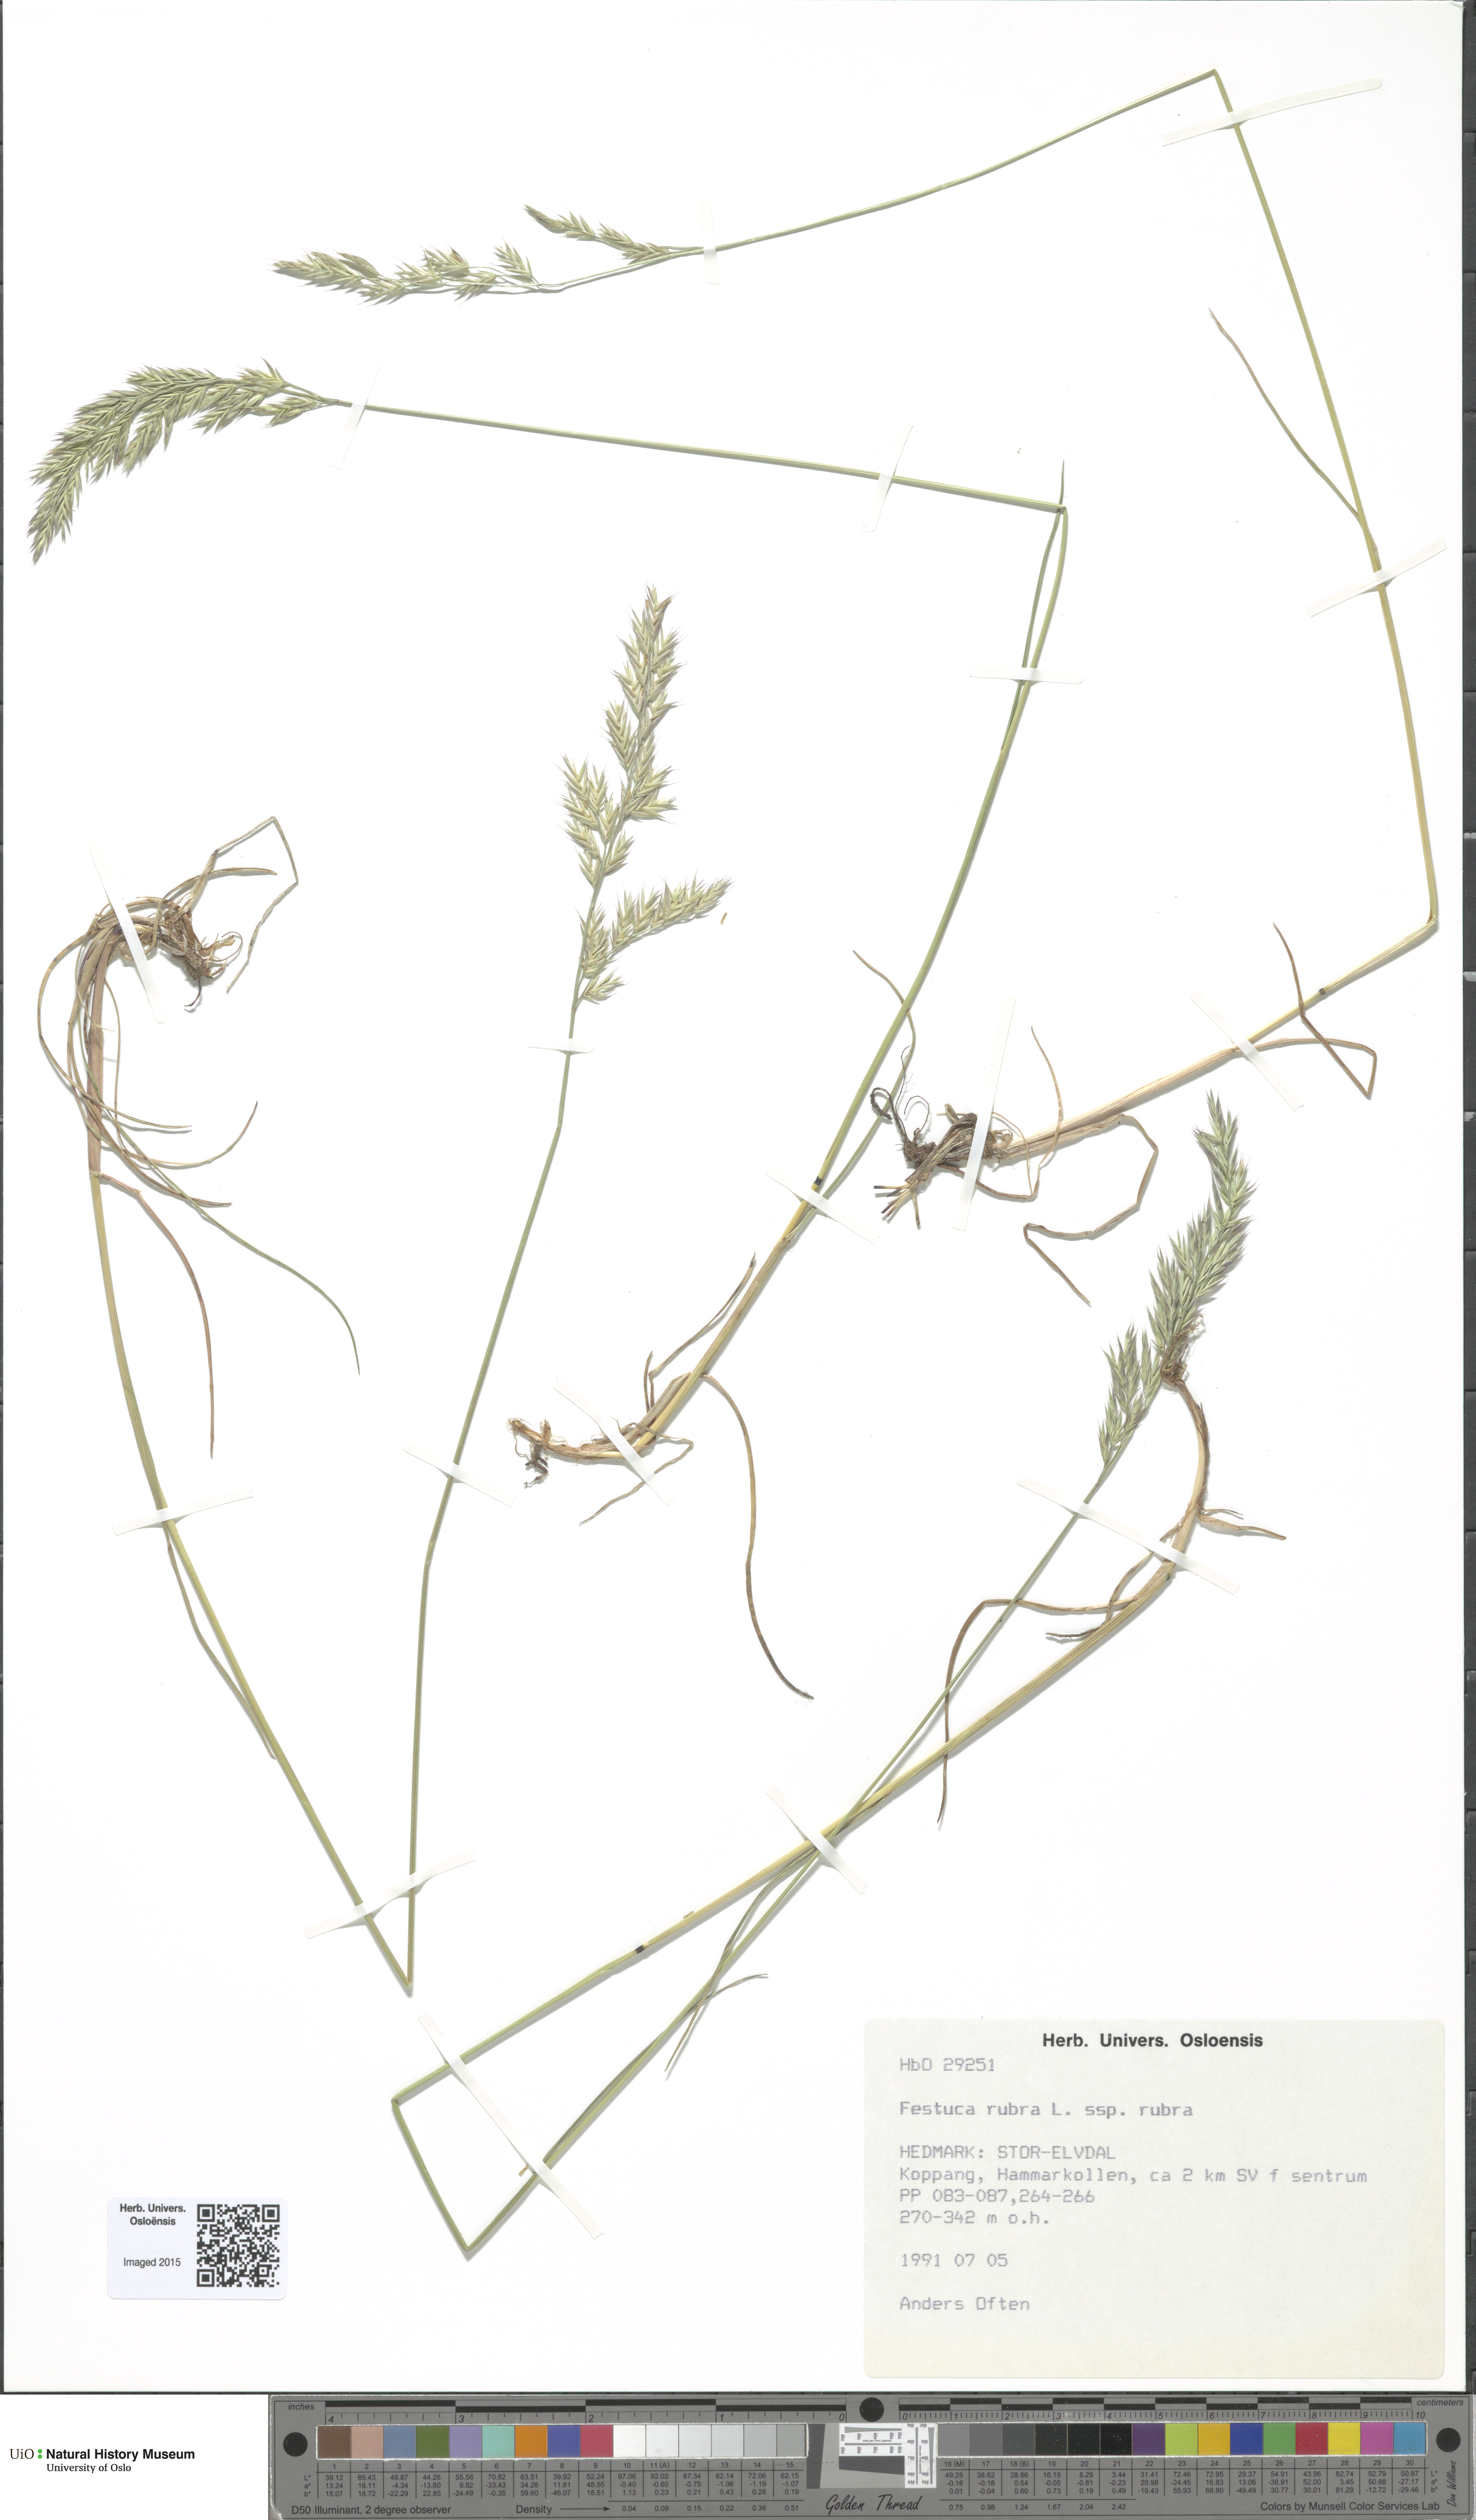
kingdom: Plantae
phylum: Tracheophyta
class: Liliopsida
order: Poales
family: Poaceae
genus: Festuca
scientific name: Festuca rubra
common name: Red fescue
